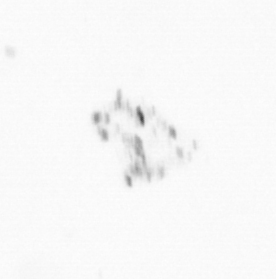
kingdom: Chromista
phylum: Ochrophyta
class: Bacillariophyceae
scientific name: Bacillariophyceae
